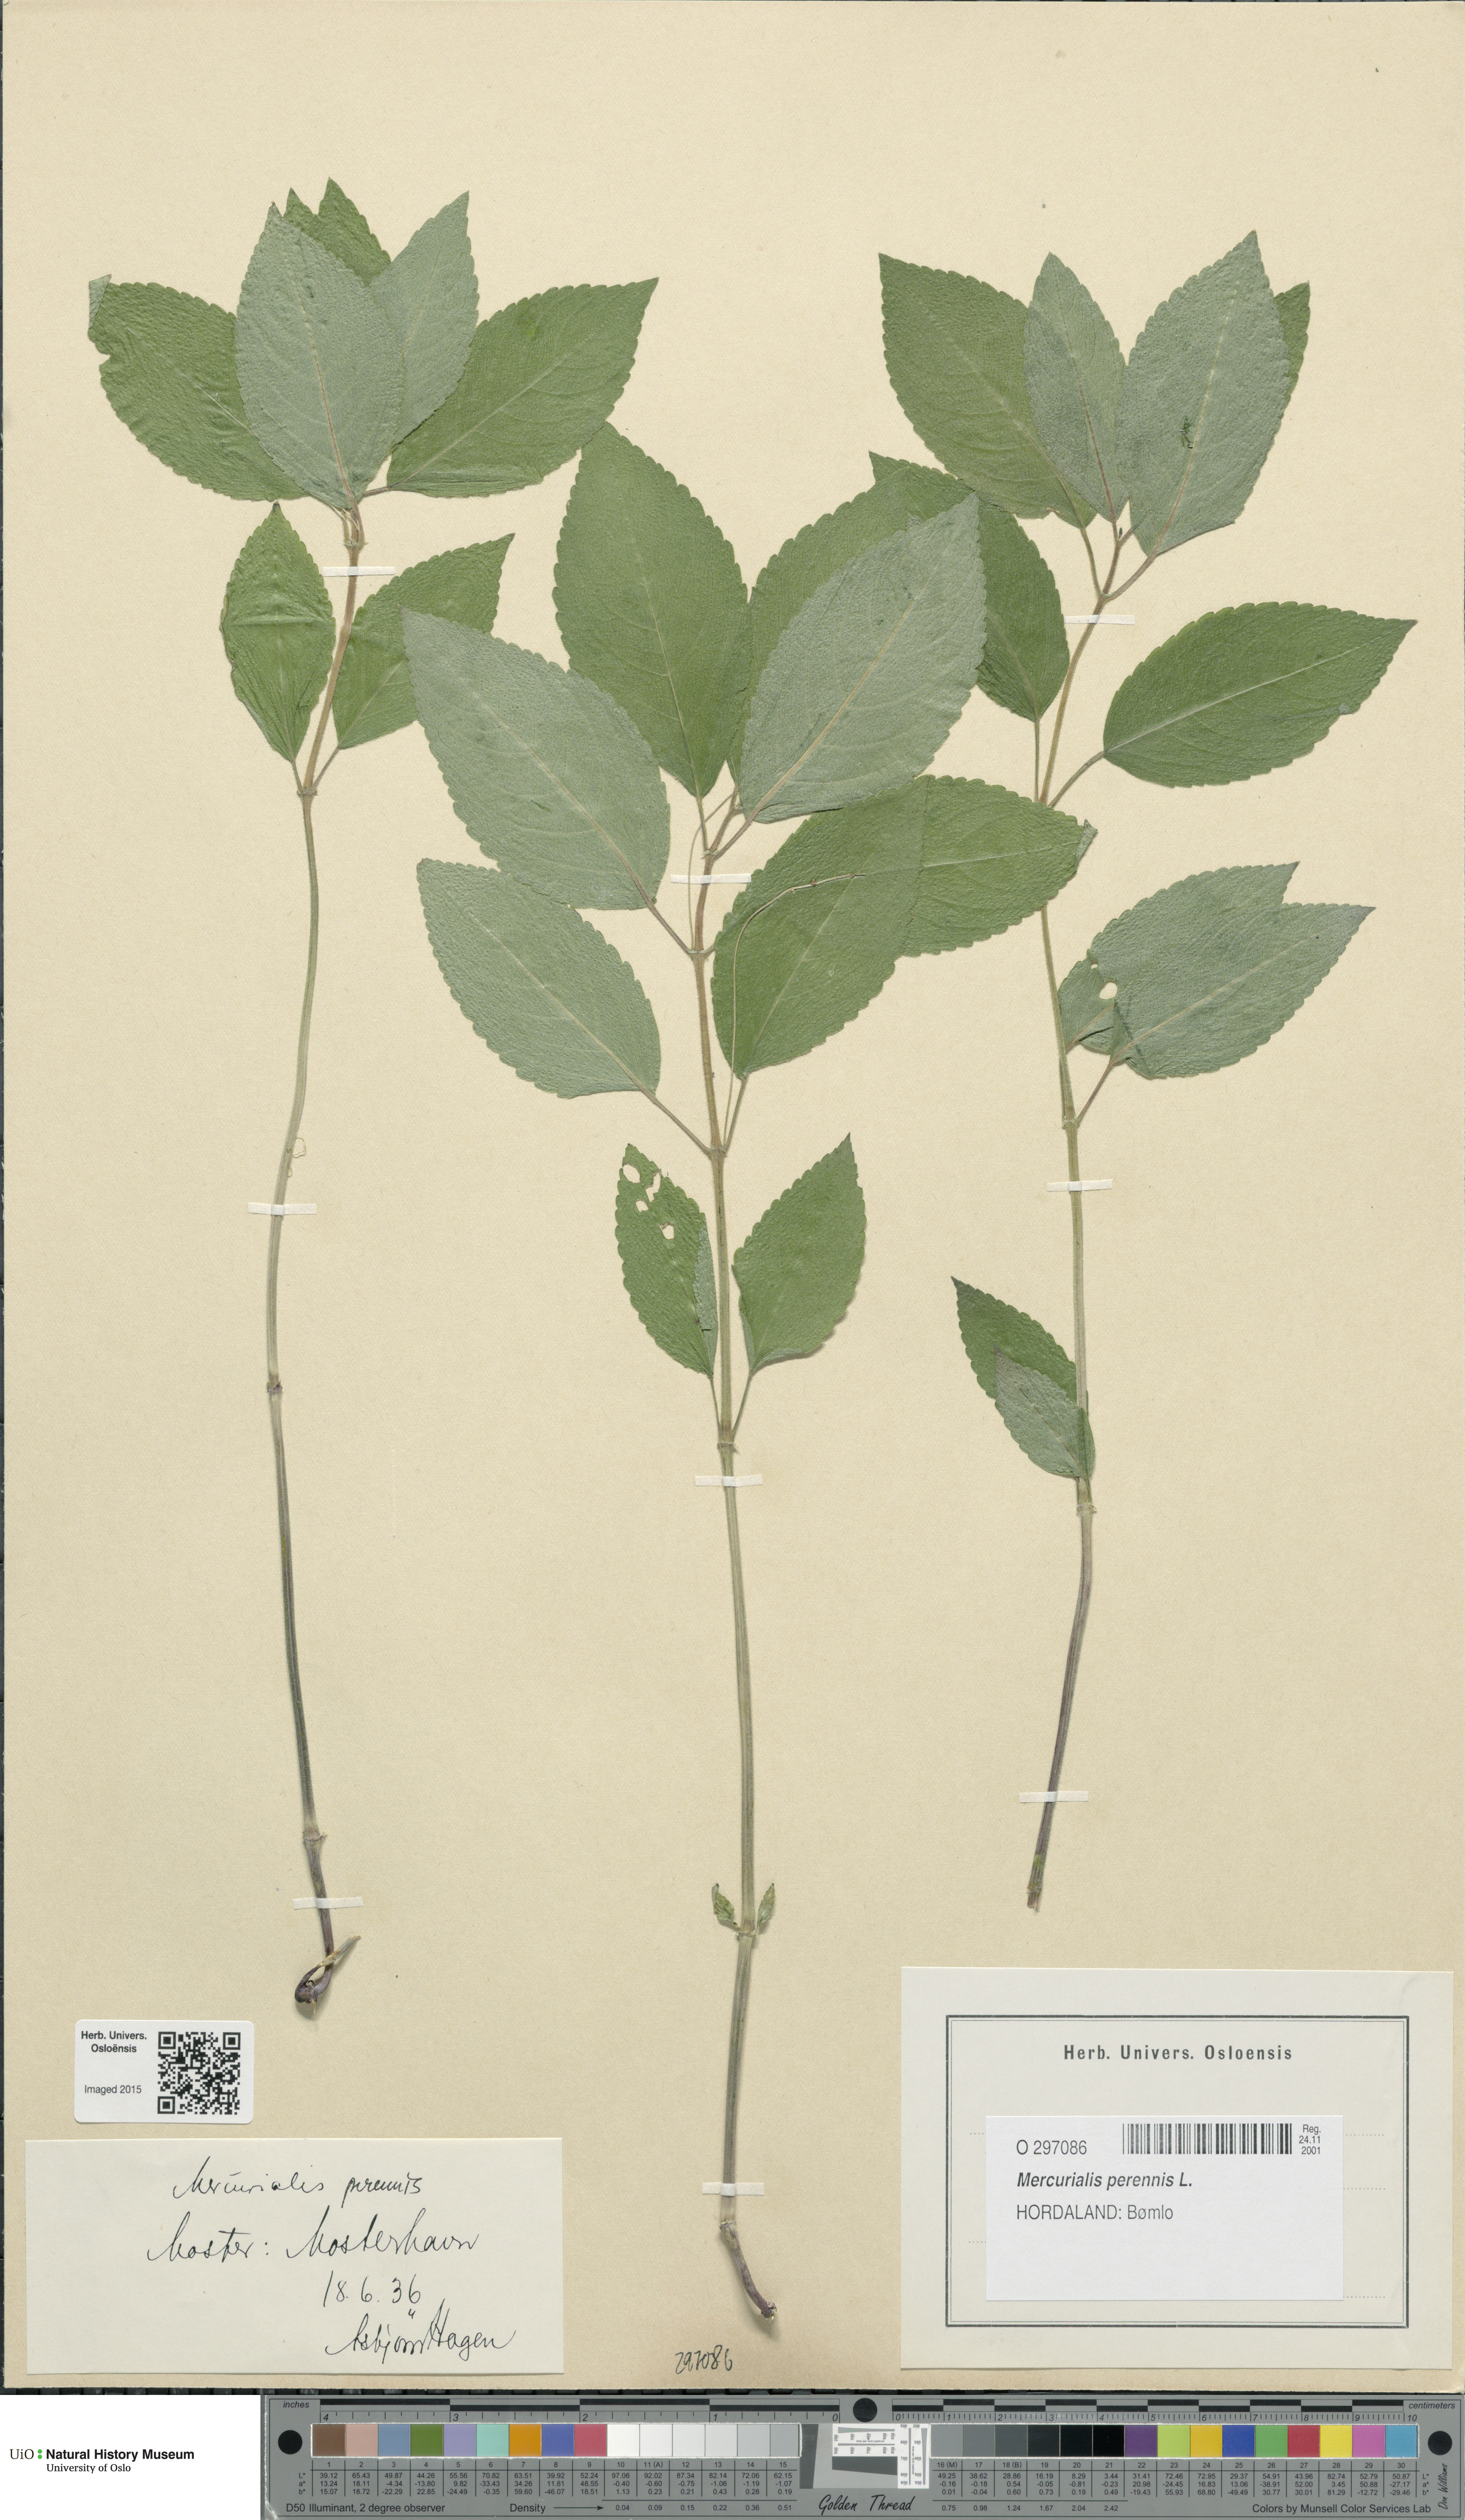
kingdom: Plantae
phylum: Tracheophyta
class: Magnoliopsida
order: Malpighiales
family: Euphorbiaceae
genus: Mercurialis
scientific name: Mercurialis perennis
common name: Dog mercury
